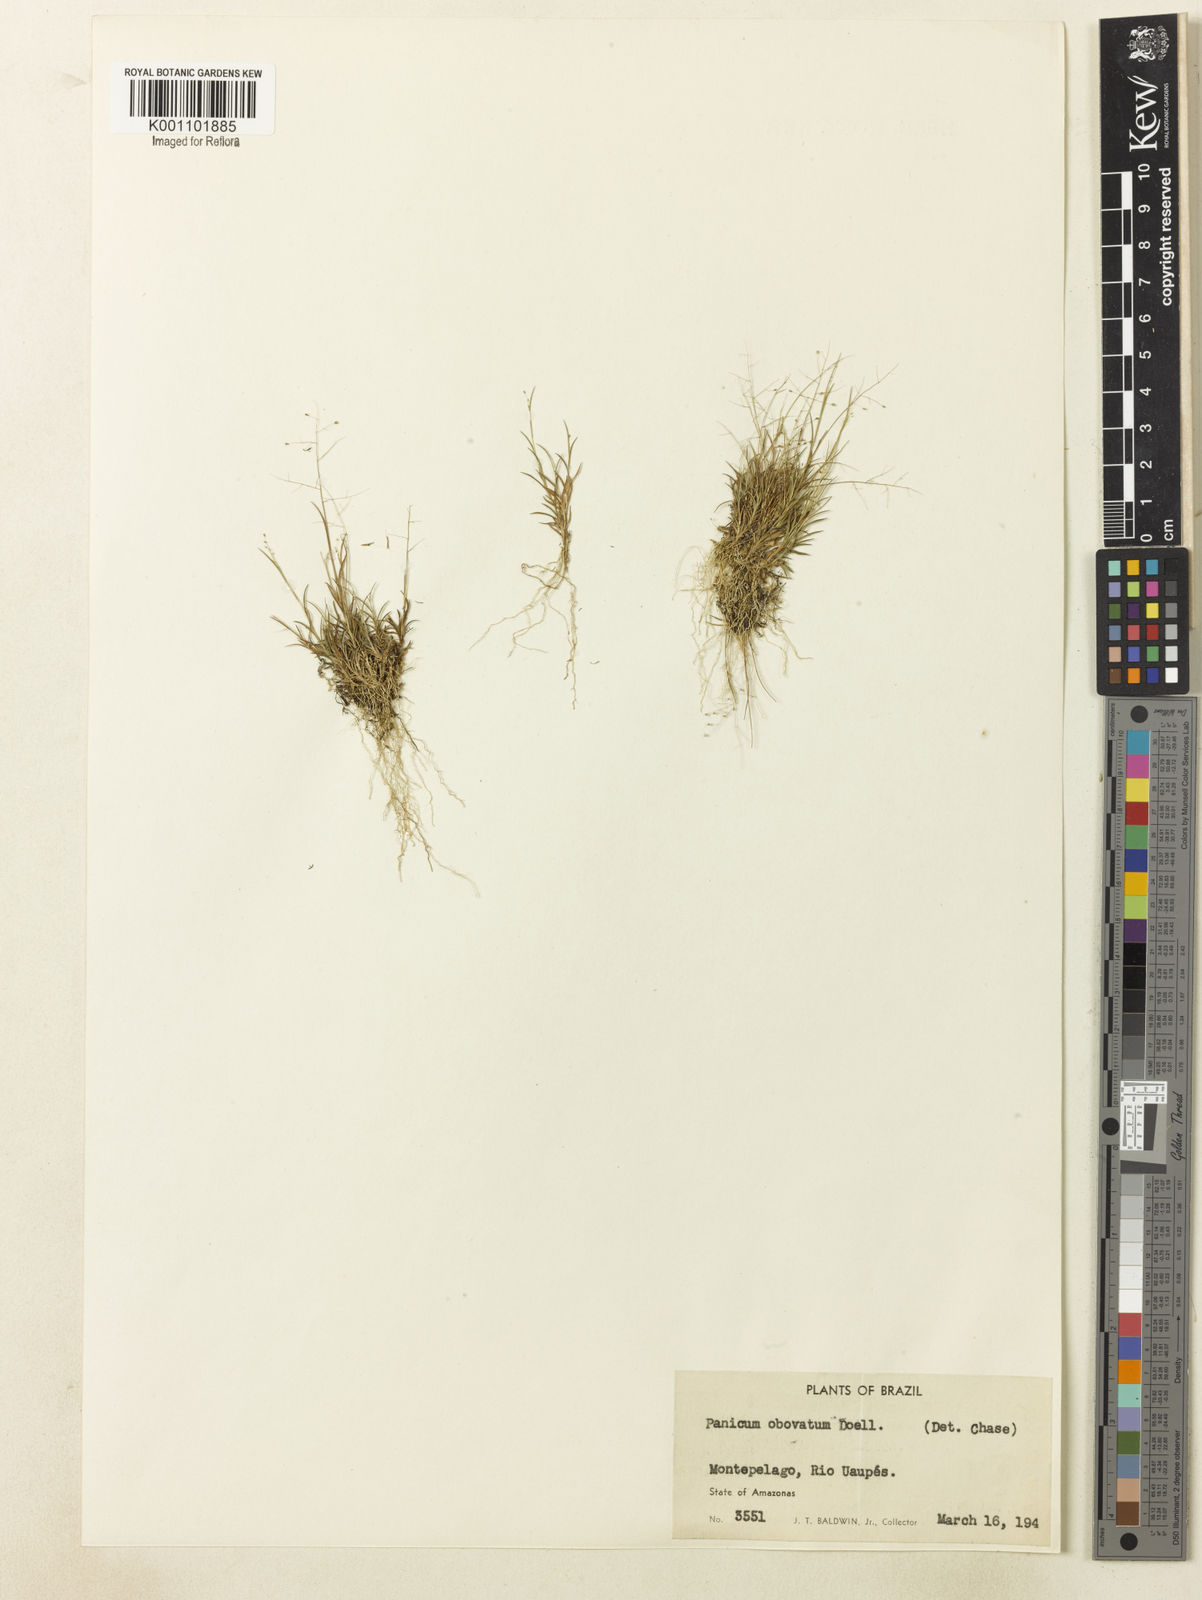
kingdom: Plantae
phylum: Tracheophyta
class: Liliopsida
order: Poales
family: Poaceae
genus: Panicum
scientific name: Panicum
